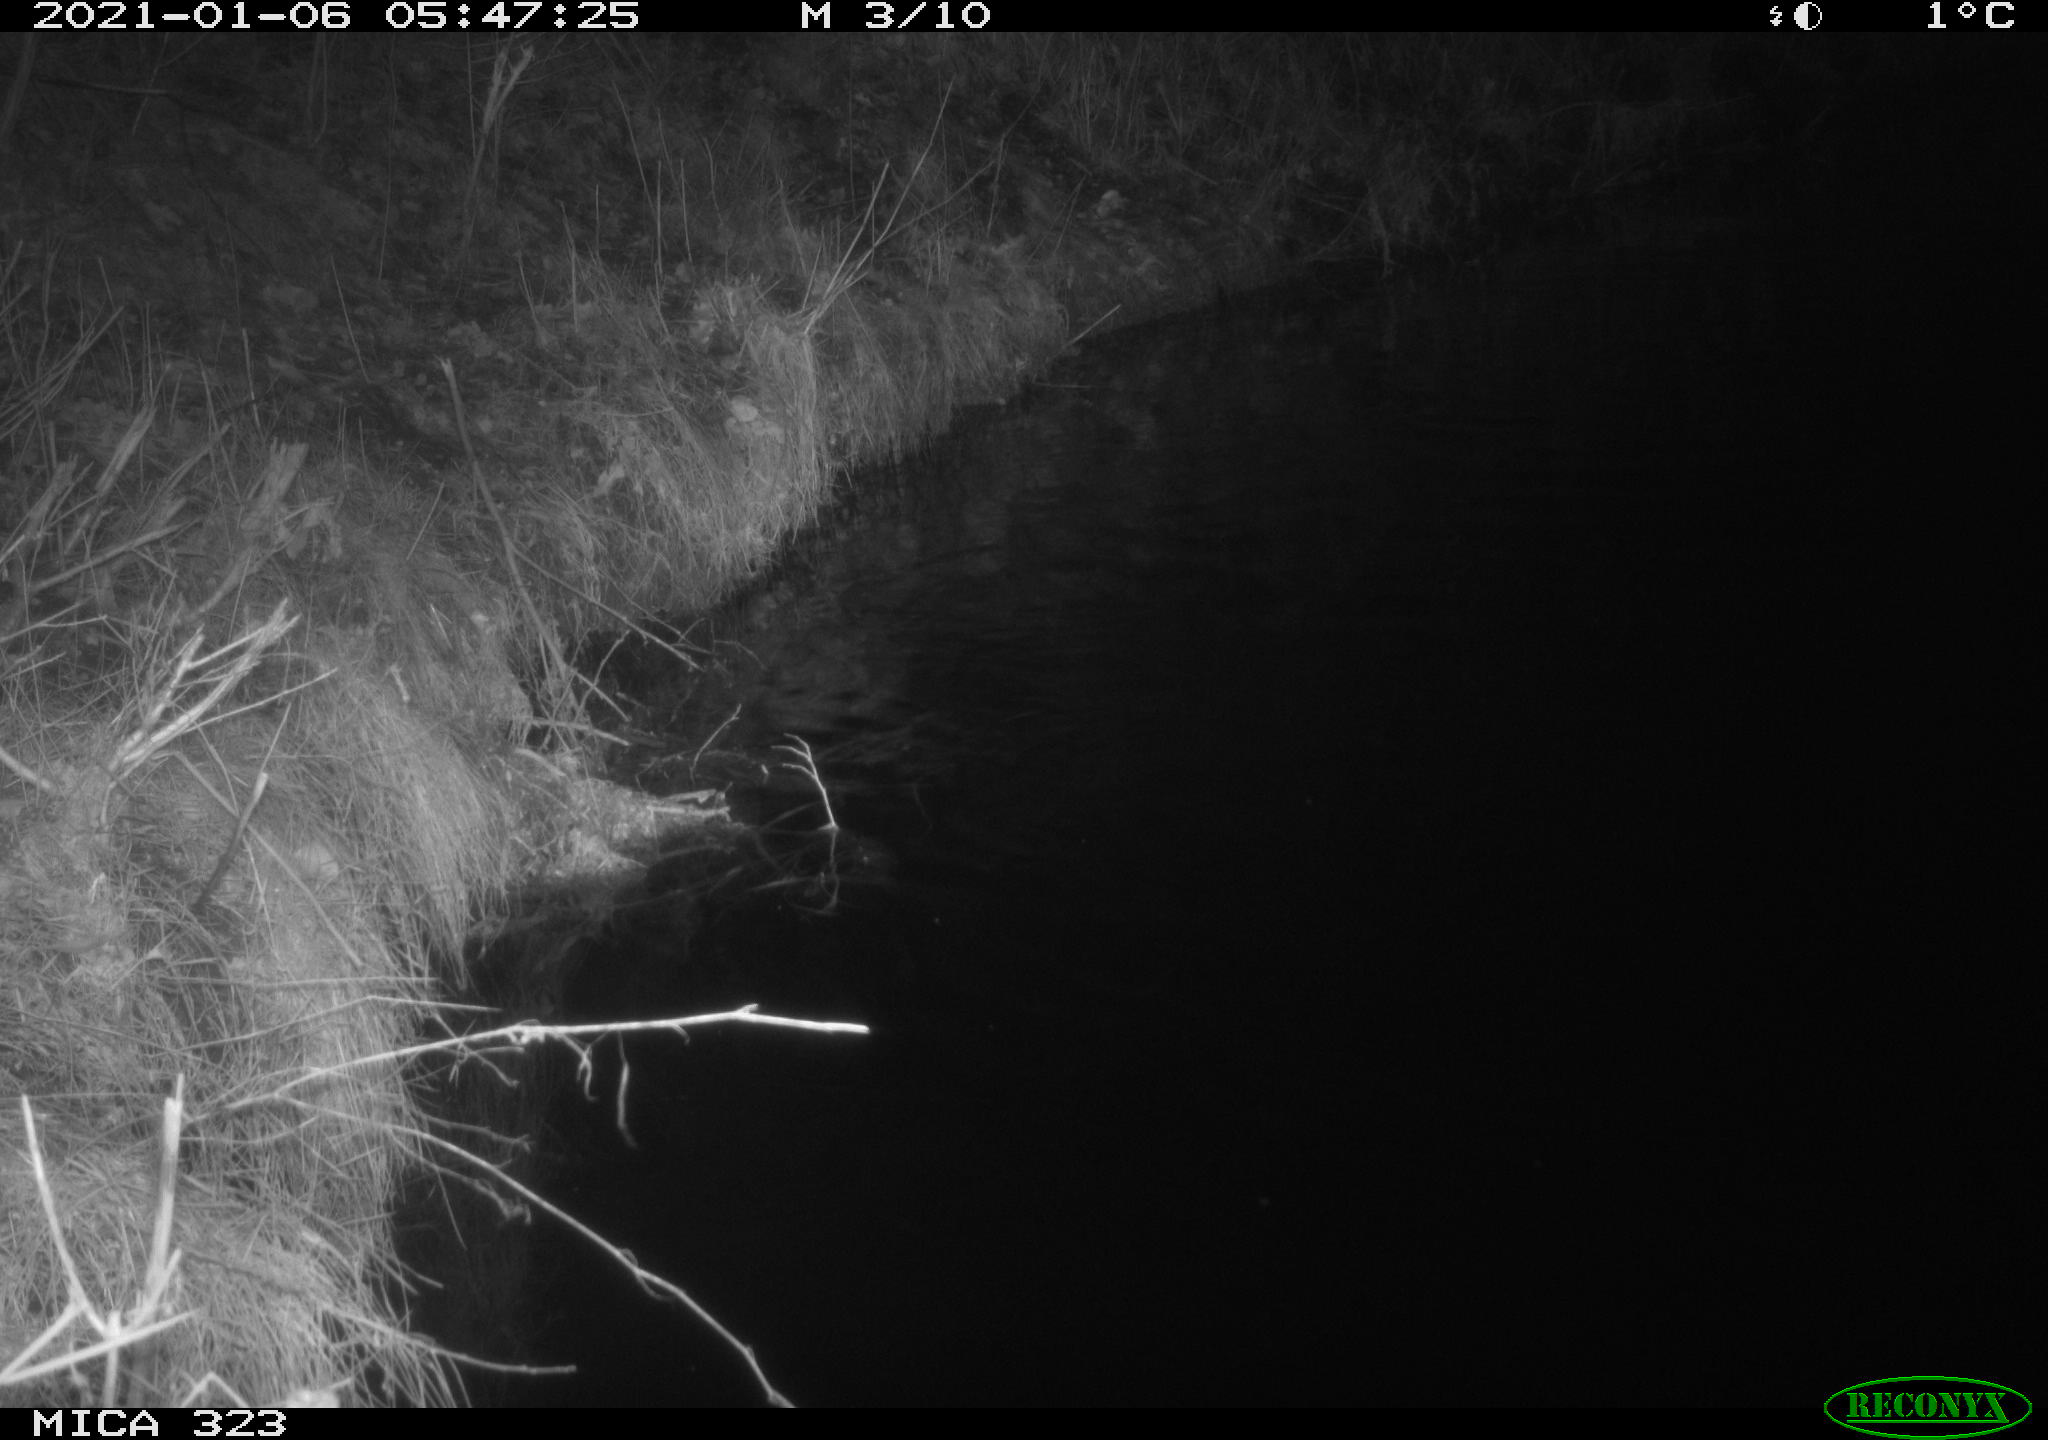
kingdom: Animalia
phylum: Chordata
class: Mammalia
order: Rodentia
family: Myocastoridae
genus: Myocastor
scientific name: Myocastor coypus
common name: Coypu
